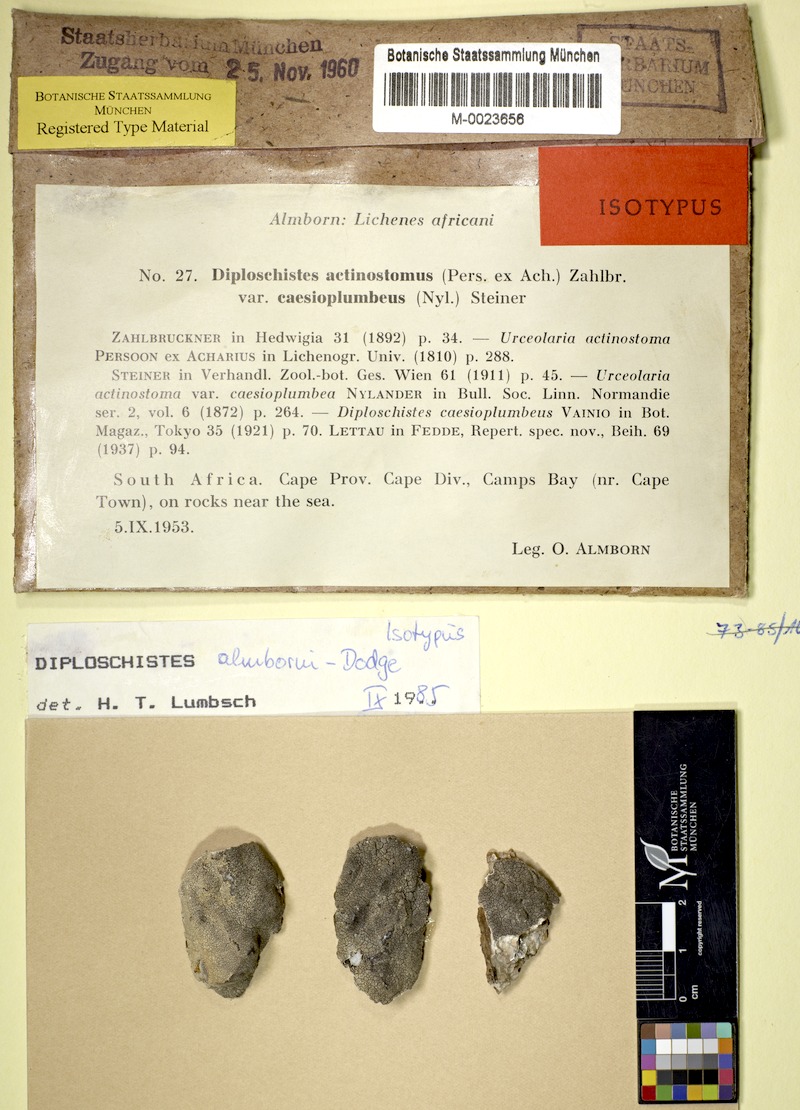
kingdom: Fungi
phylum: Ascomycota
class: Lecanoromycetes
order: Ostropales
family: Graphidaceae
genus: Diploschistes
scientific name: Diploschistes almbornii
